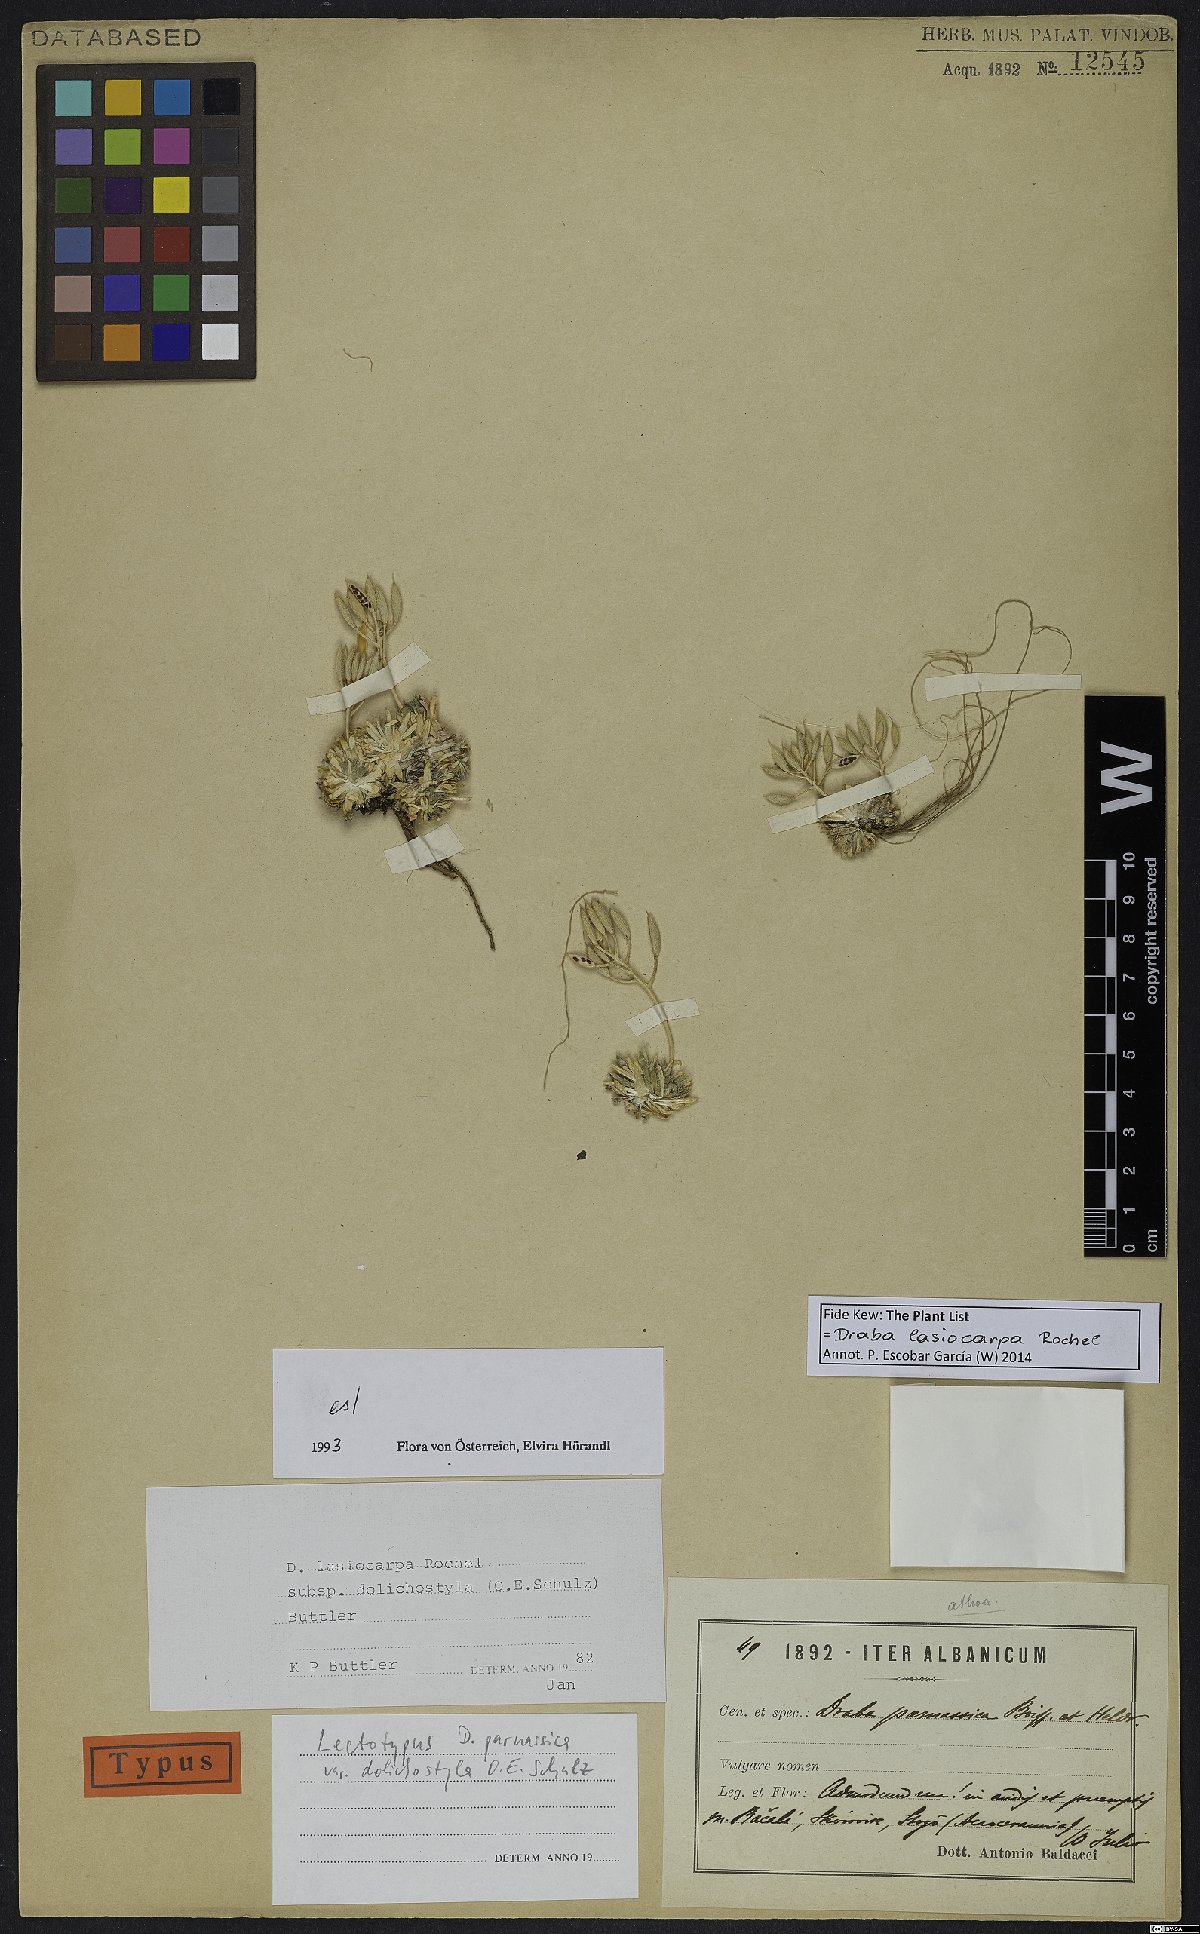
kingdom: Plantae
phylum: Tracheophyta
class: Magnoliopsida
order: Brassicales
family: Brassicaceae
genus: Draba
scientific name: Draba lasiocarpa
